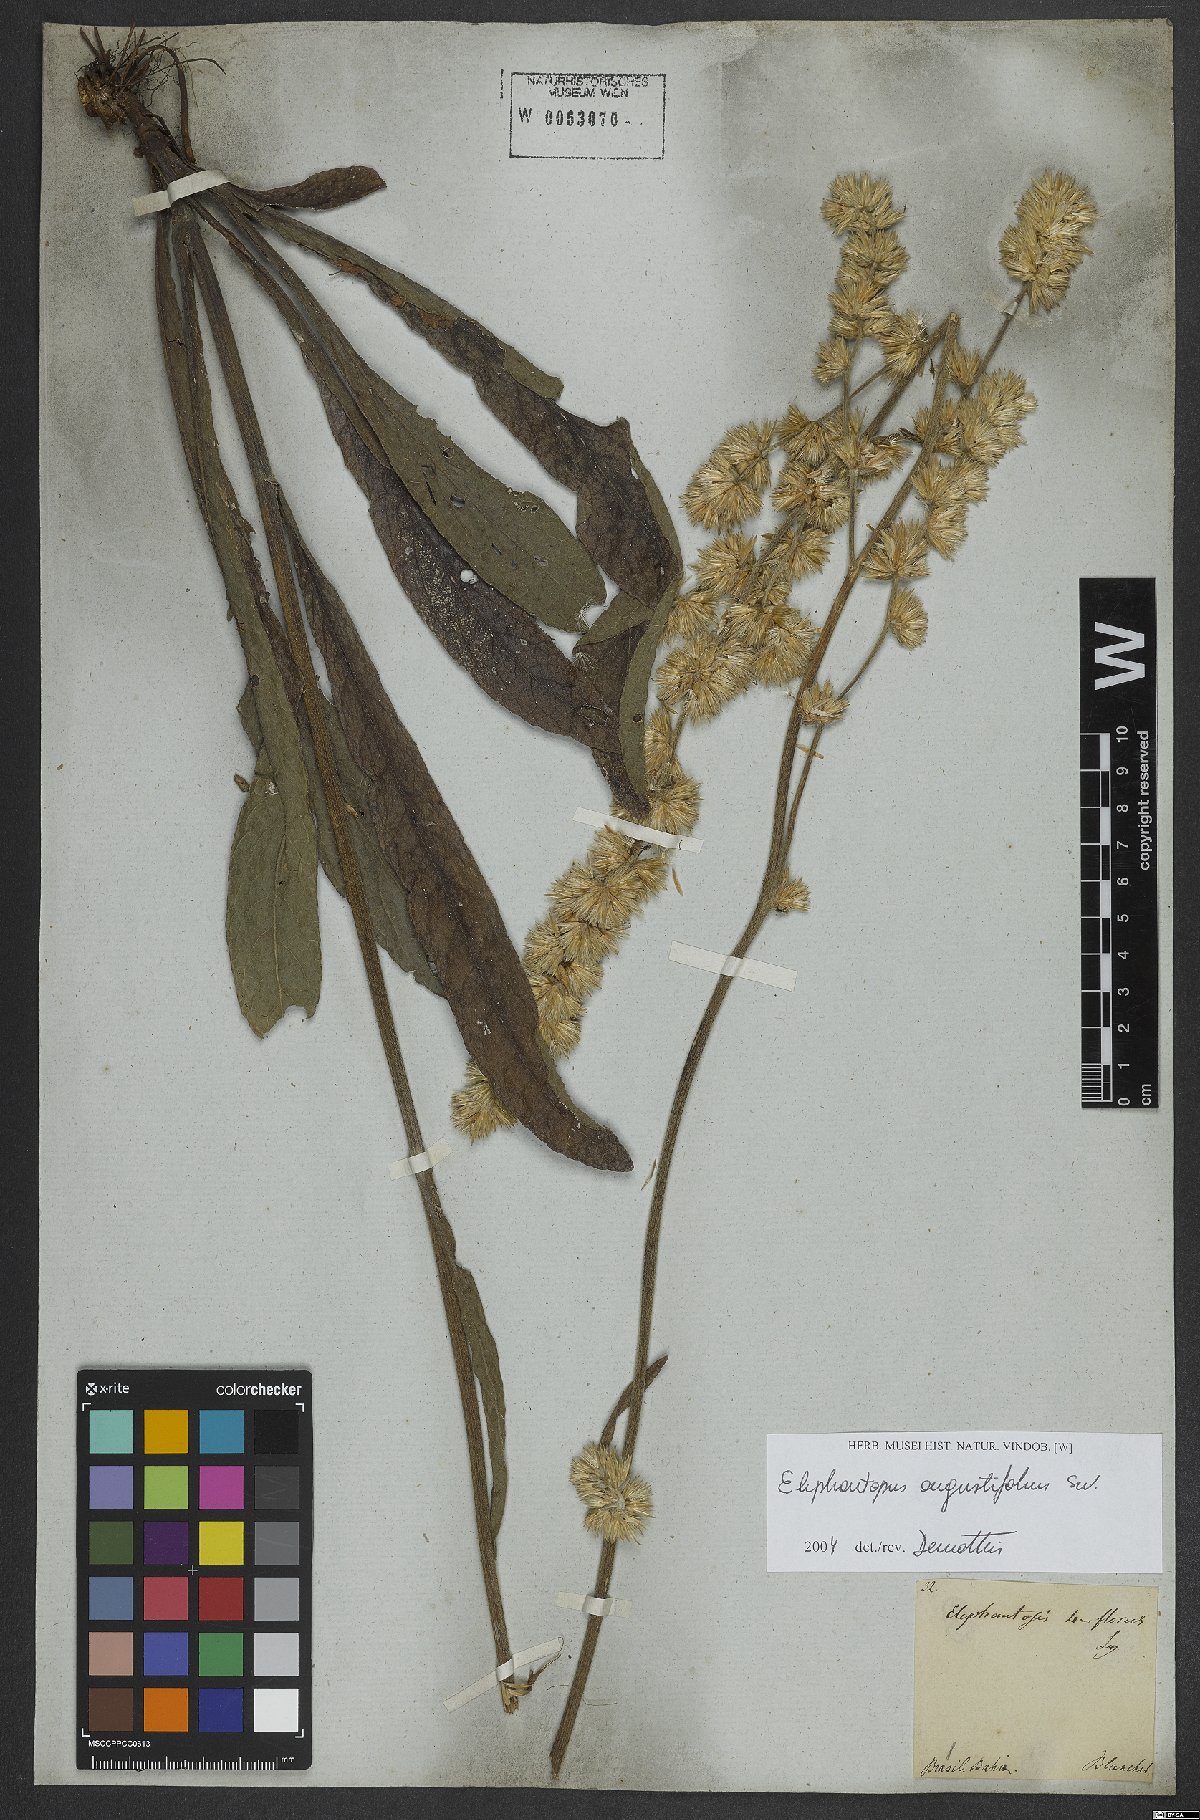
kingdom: Plantae
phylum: Tracheophyta
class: Magnoliopsida
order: Asterales
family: Asteraceae
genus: Orthopappus
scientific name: Orthopappus angustifolius
